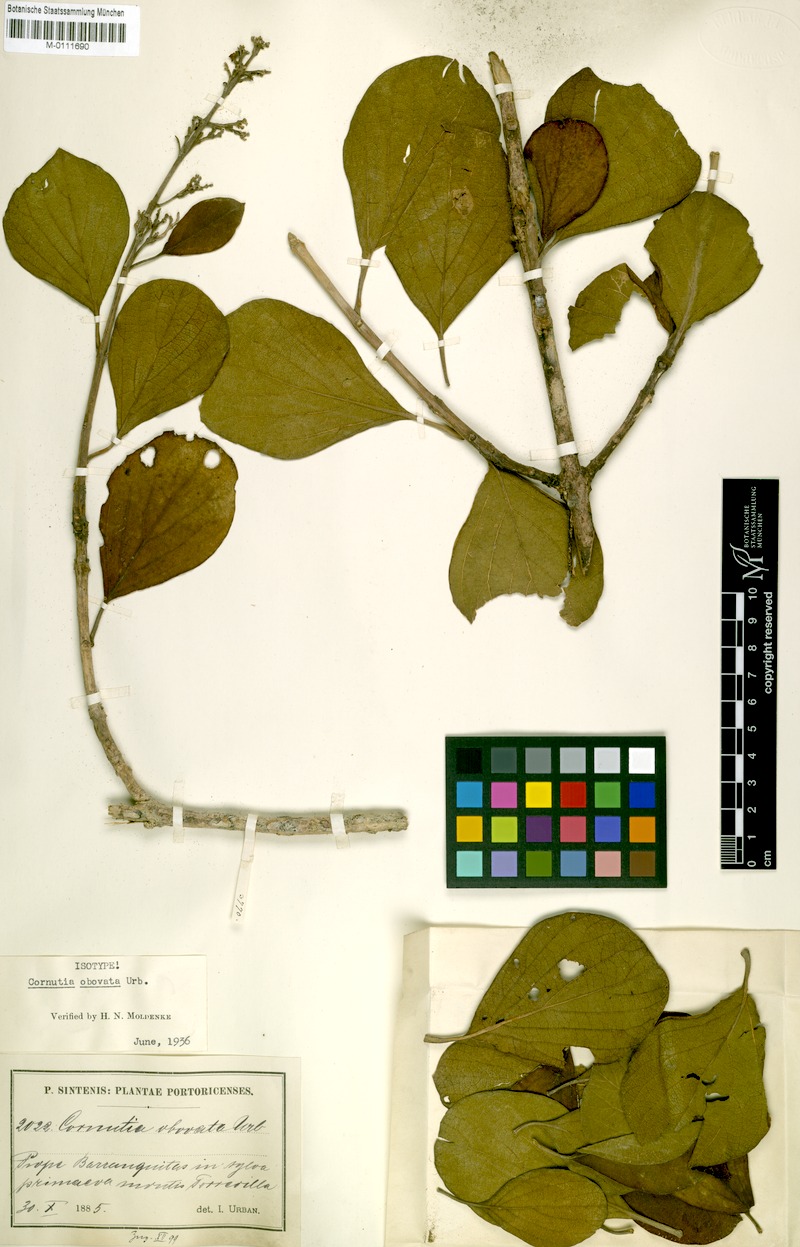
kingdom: Plantae
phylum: Tracheophyta
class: Magnoliopsida
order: Lamiales
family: Lamiaceae
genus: Cornutia
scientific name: Cornutia obovata
